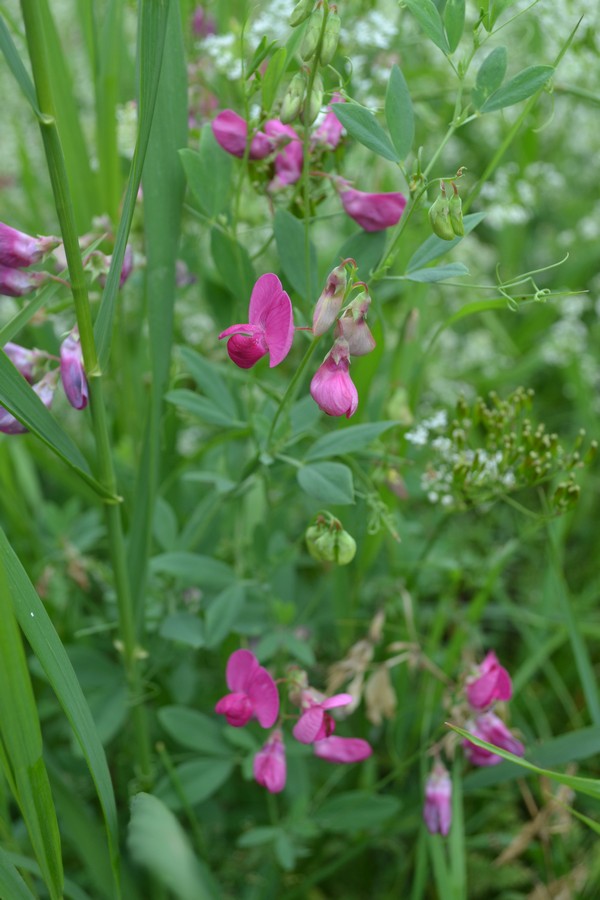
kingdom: Plantae
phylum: Tracheophyta
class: Magnoliopsida
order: Fabales
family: Fabaceae
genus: Lathyrus
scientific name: Lathyrus tuberosus
